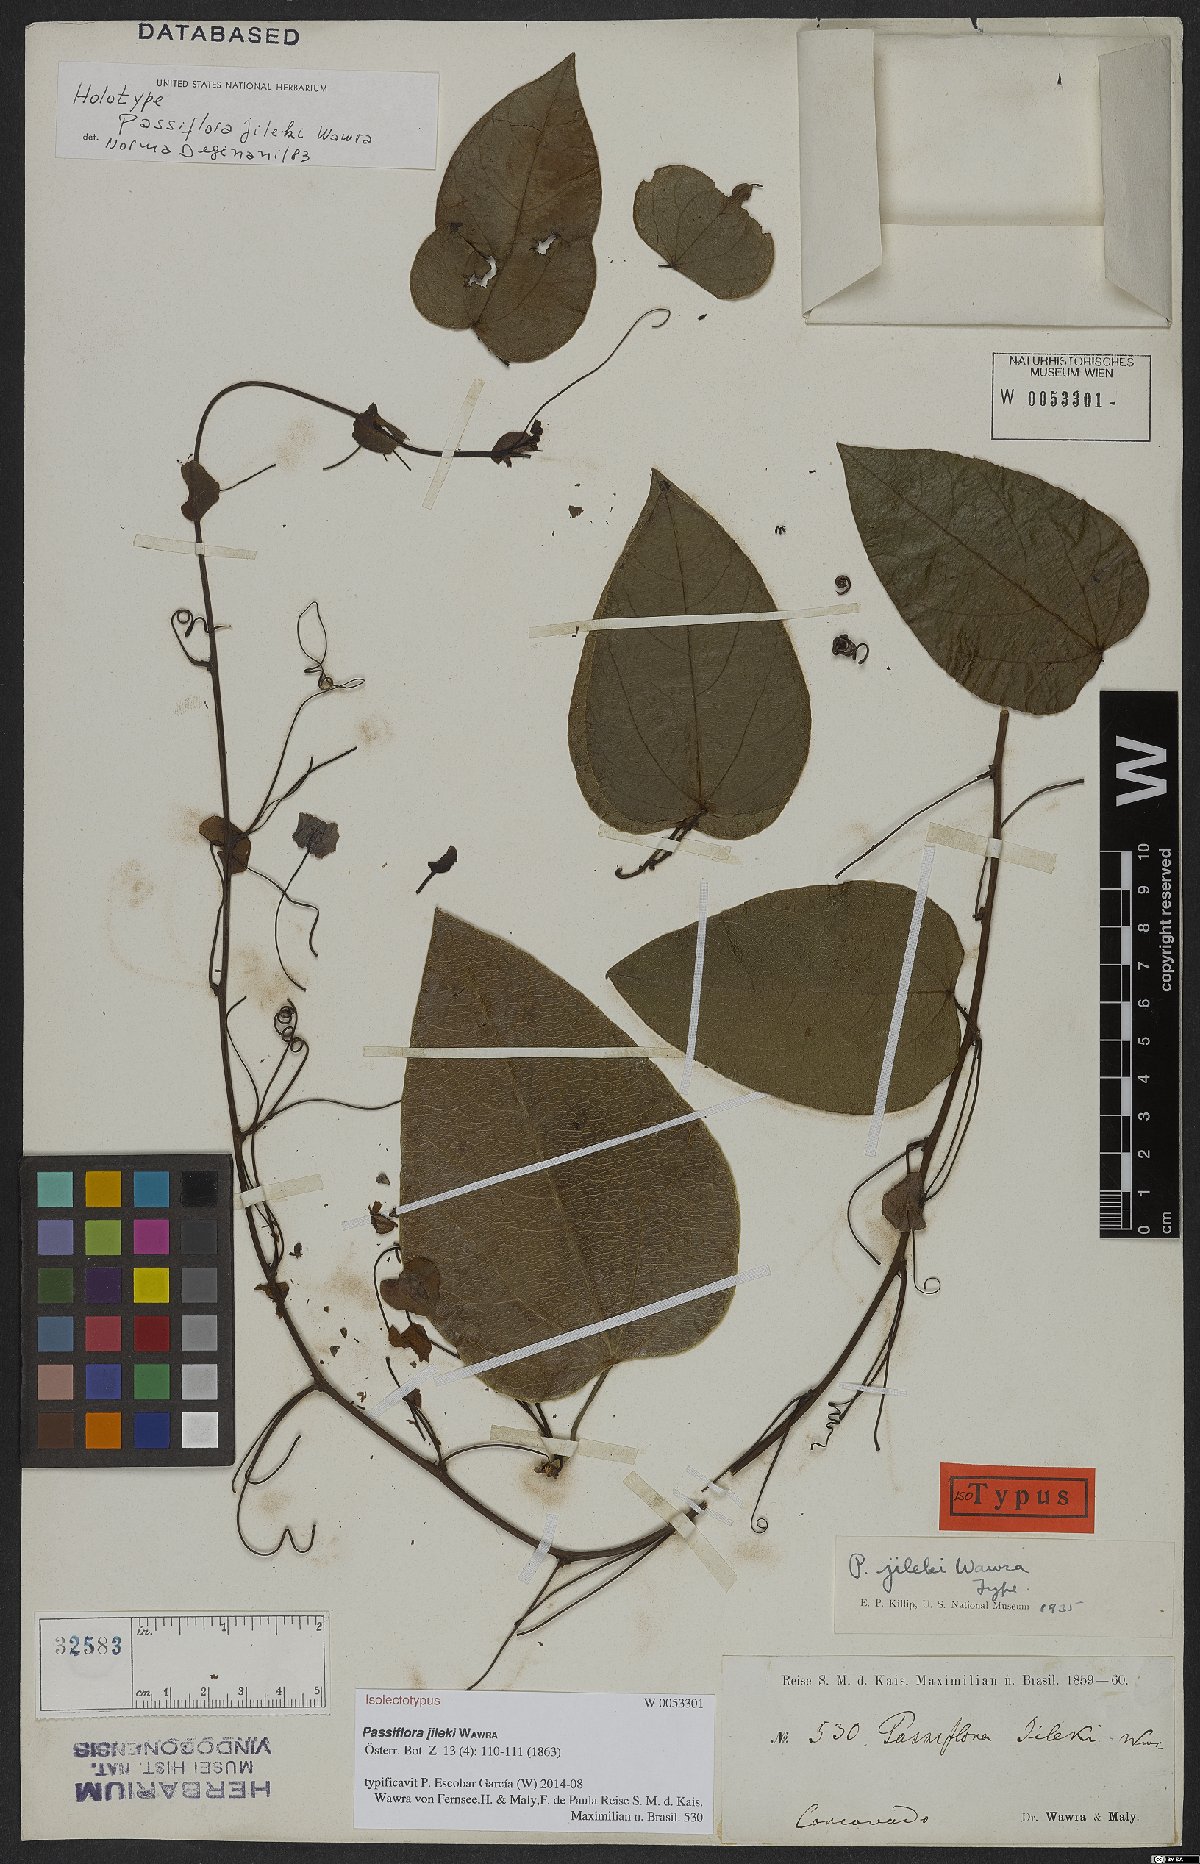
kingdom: Plantae
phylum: Tracheophyta
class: Magnoliopsida
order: Malpighiales
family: Passifloraceae
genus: Passiflora
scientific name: Passiflora mediterranea
